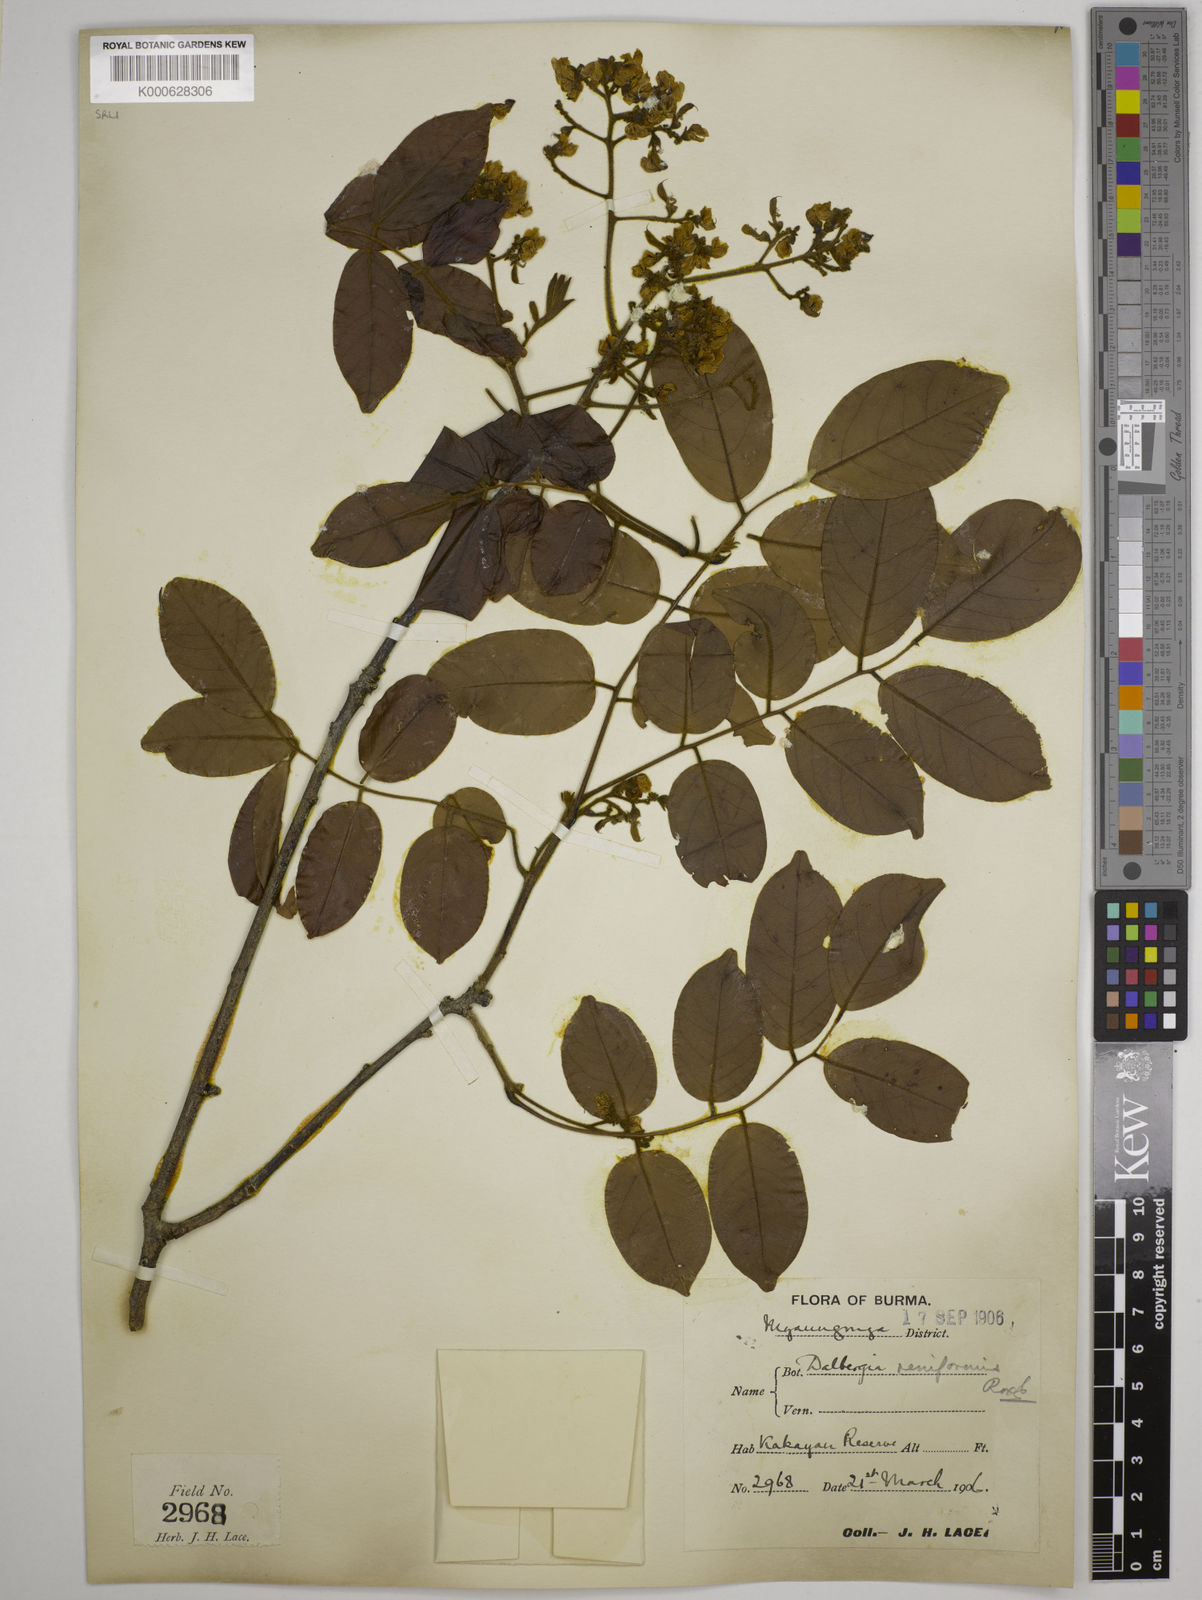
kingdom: Plantae
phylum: Tracheophyta
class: Magnoliopsida
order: Fabales
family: Fabaceae
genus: Dalbergia
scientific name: Dalbergia reniformis
